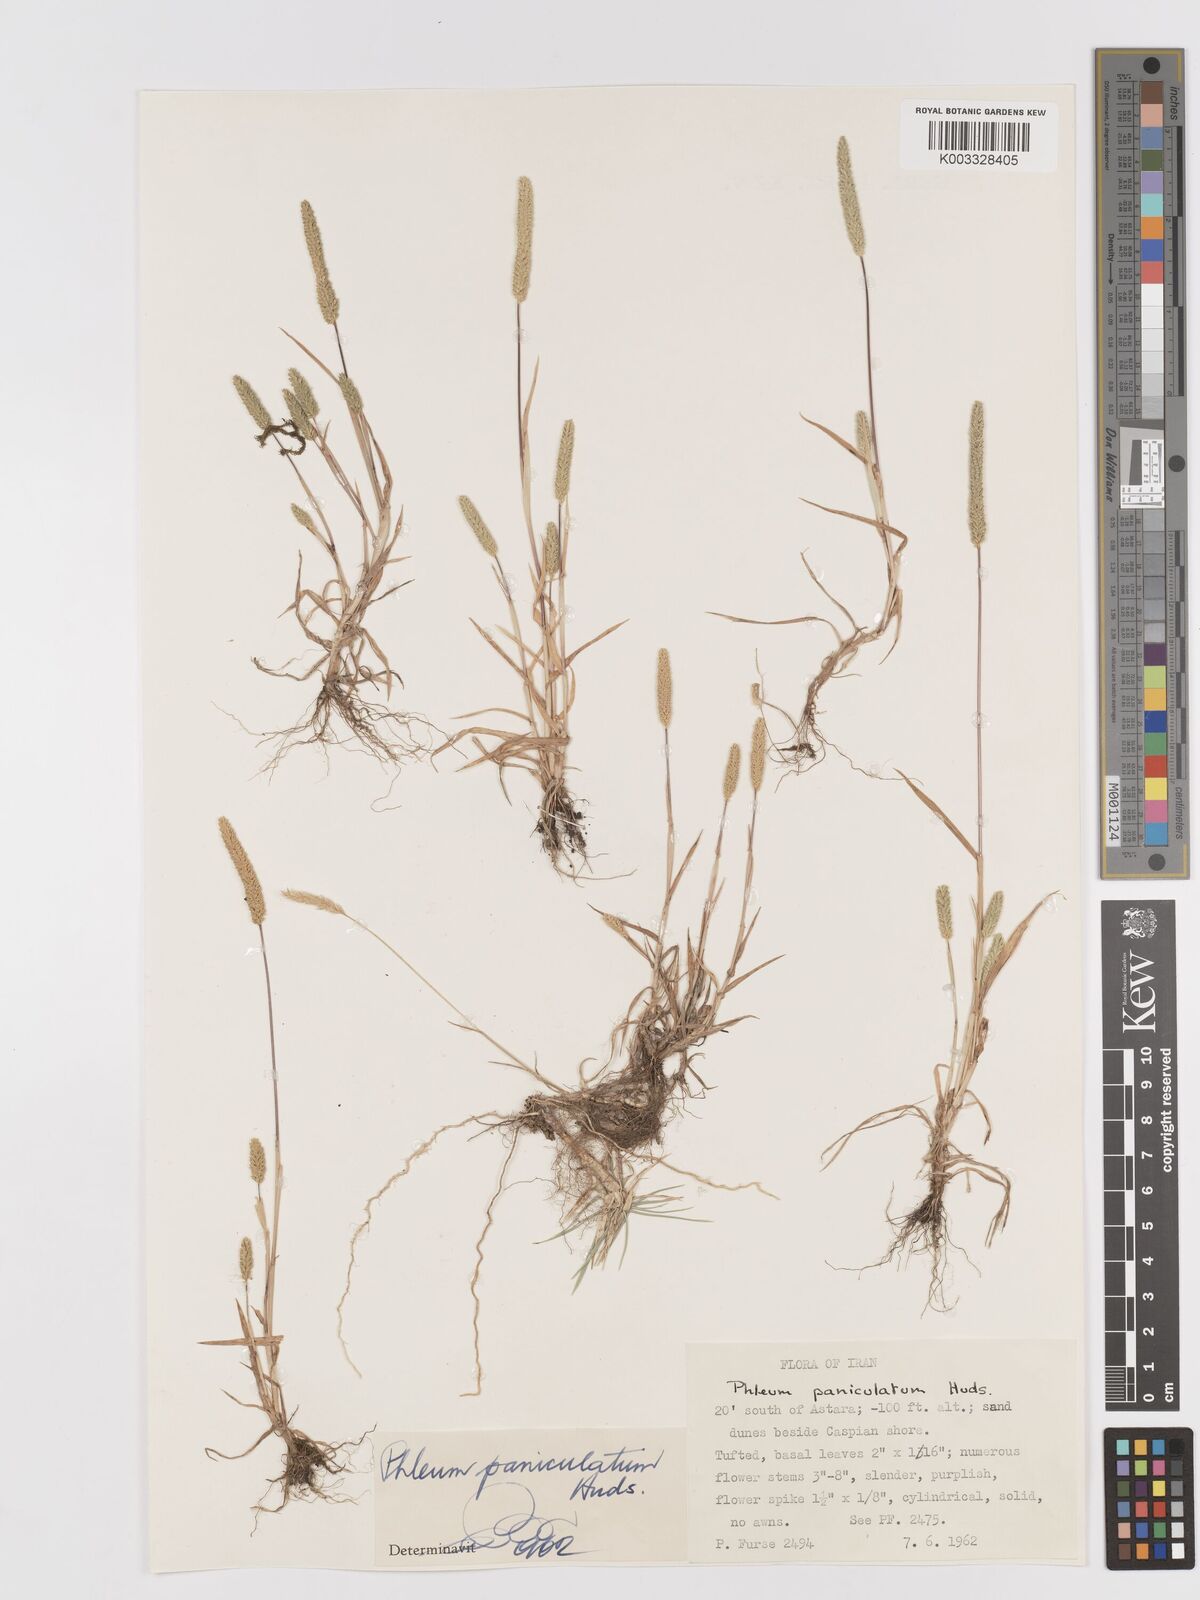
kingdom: Plantae
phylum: Tracheophyta
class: Liliopsida
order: Poales
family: Poaceae
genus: Phleum
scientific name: Phleum paniculatum
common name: British timothy
